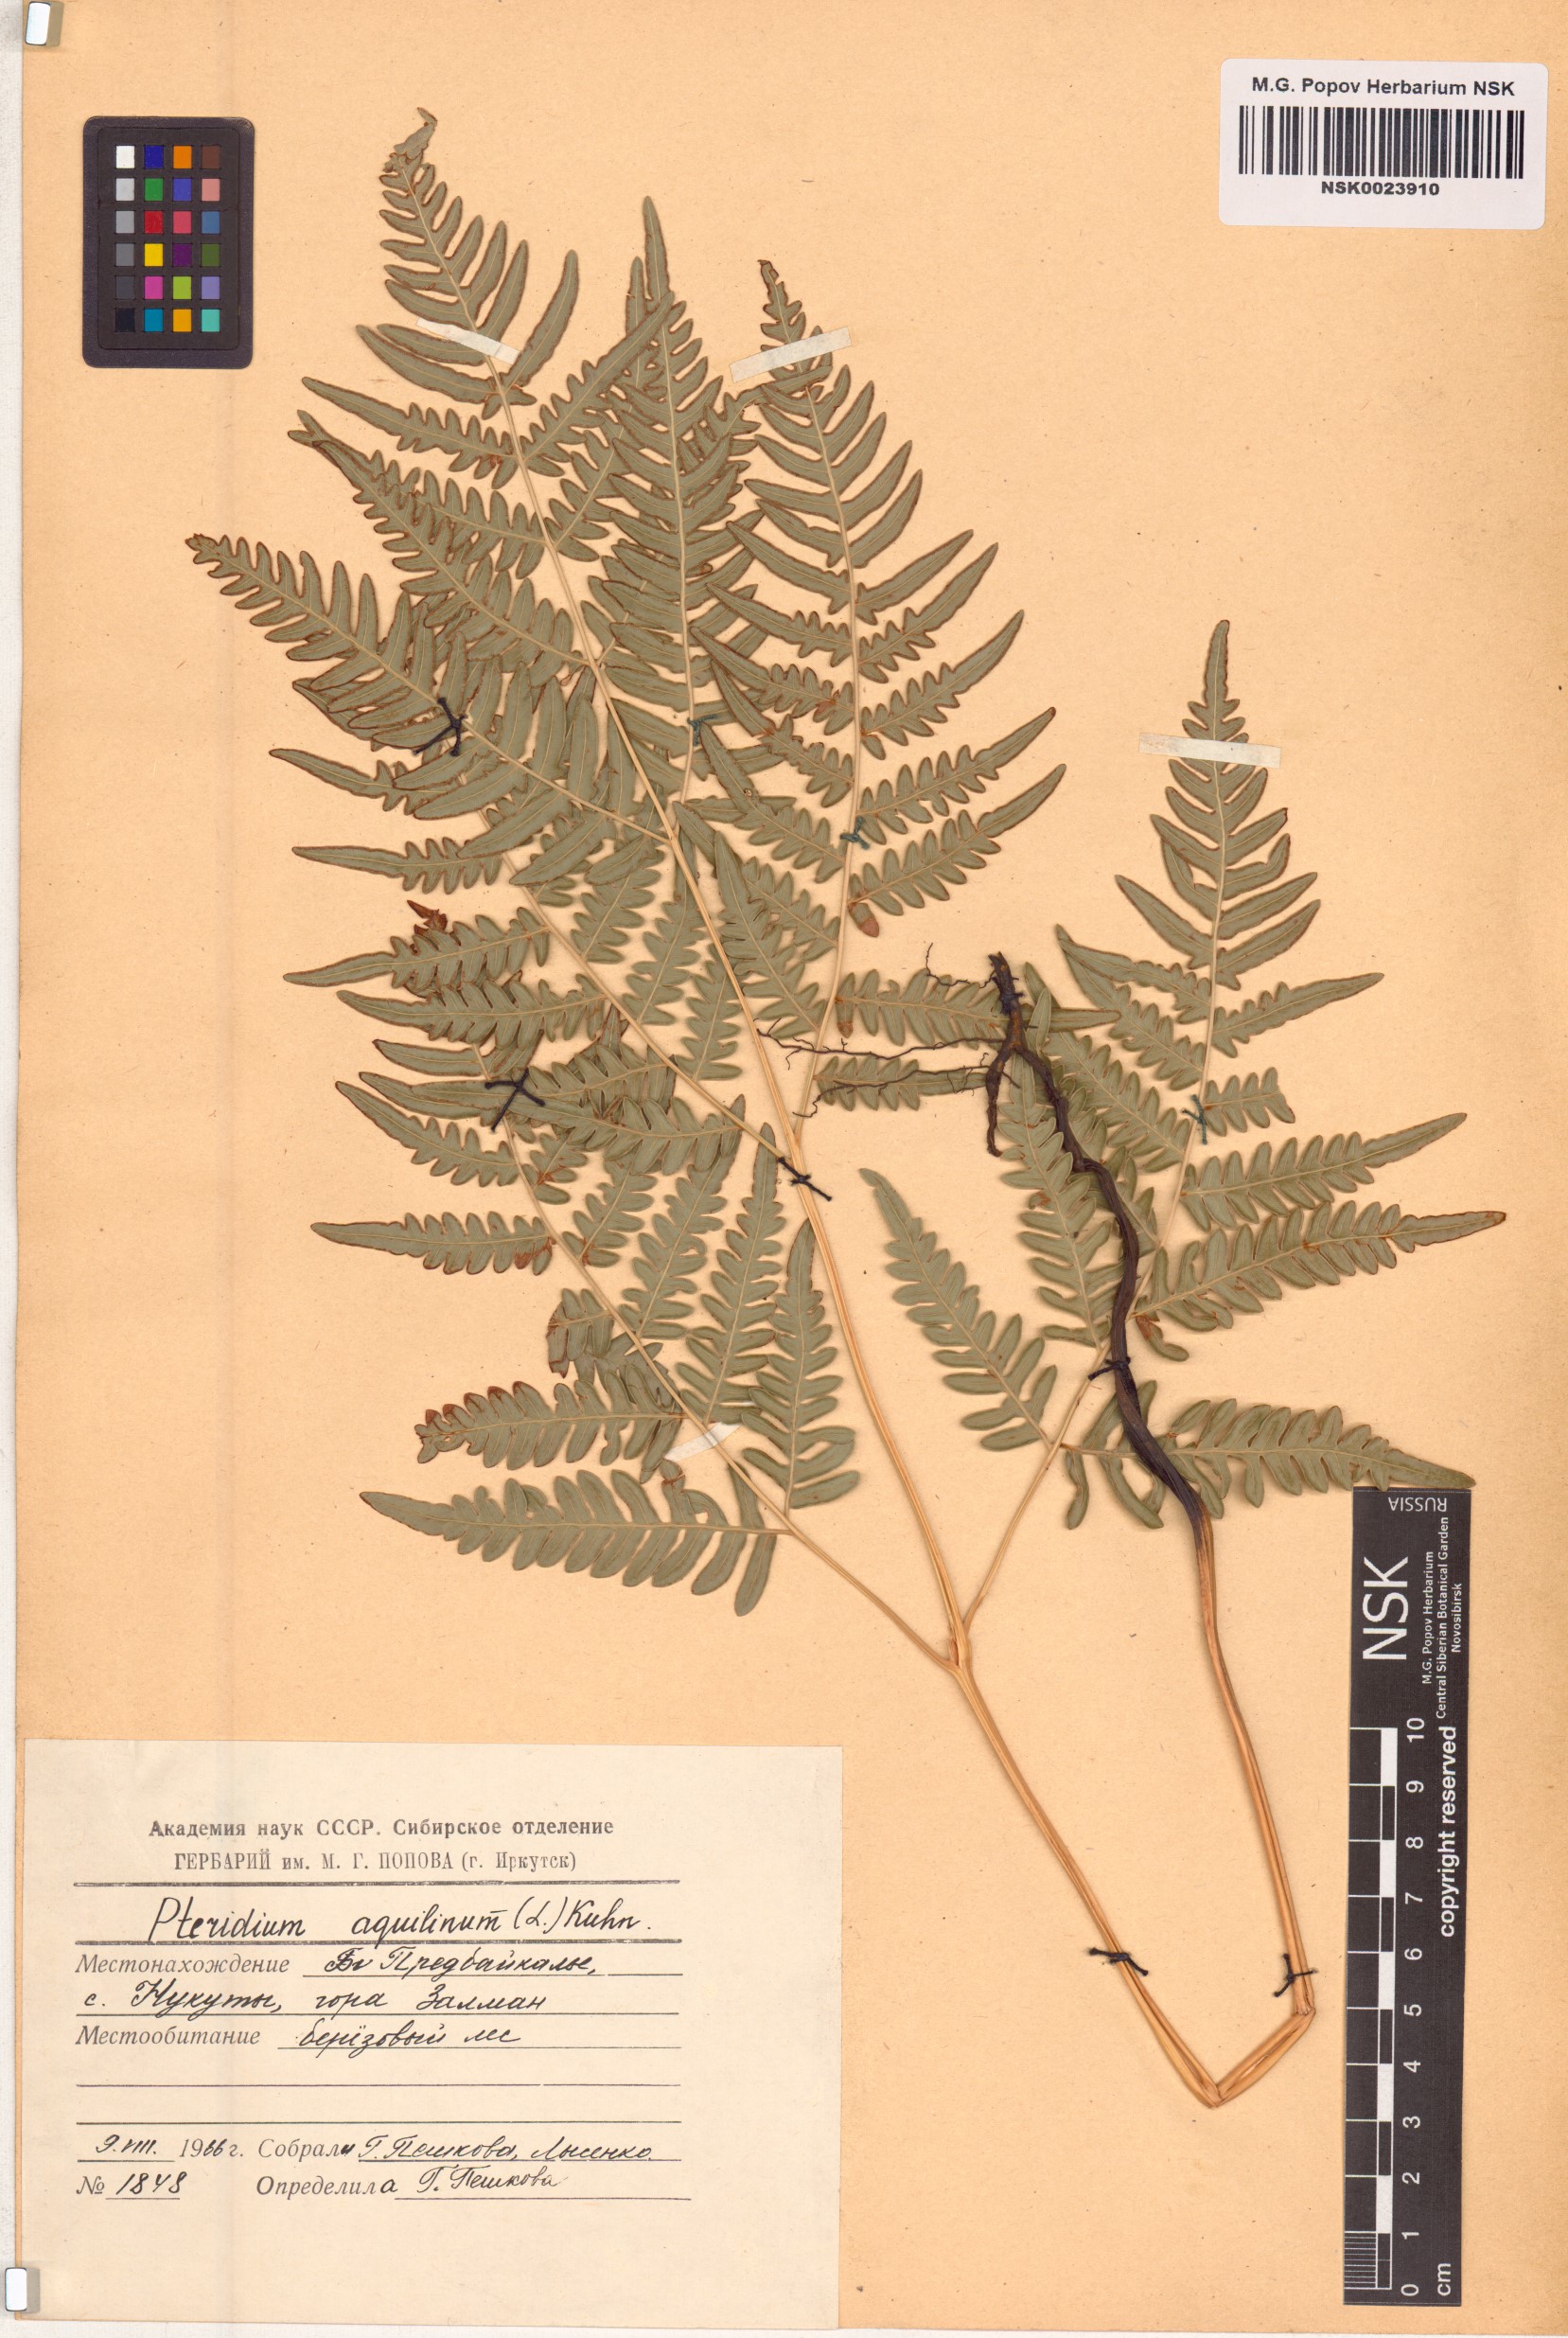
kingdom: Plantae
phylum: Tracheophyta
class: Polypodiopsida
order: Polypodiales
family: Dennstaedtiaceae
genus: Pteridium
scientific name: Pteridium aquilinum
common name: Bracken
